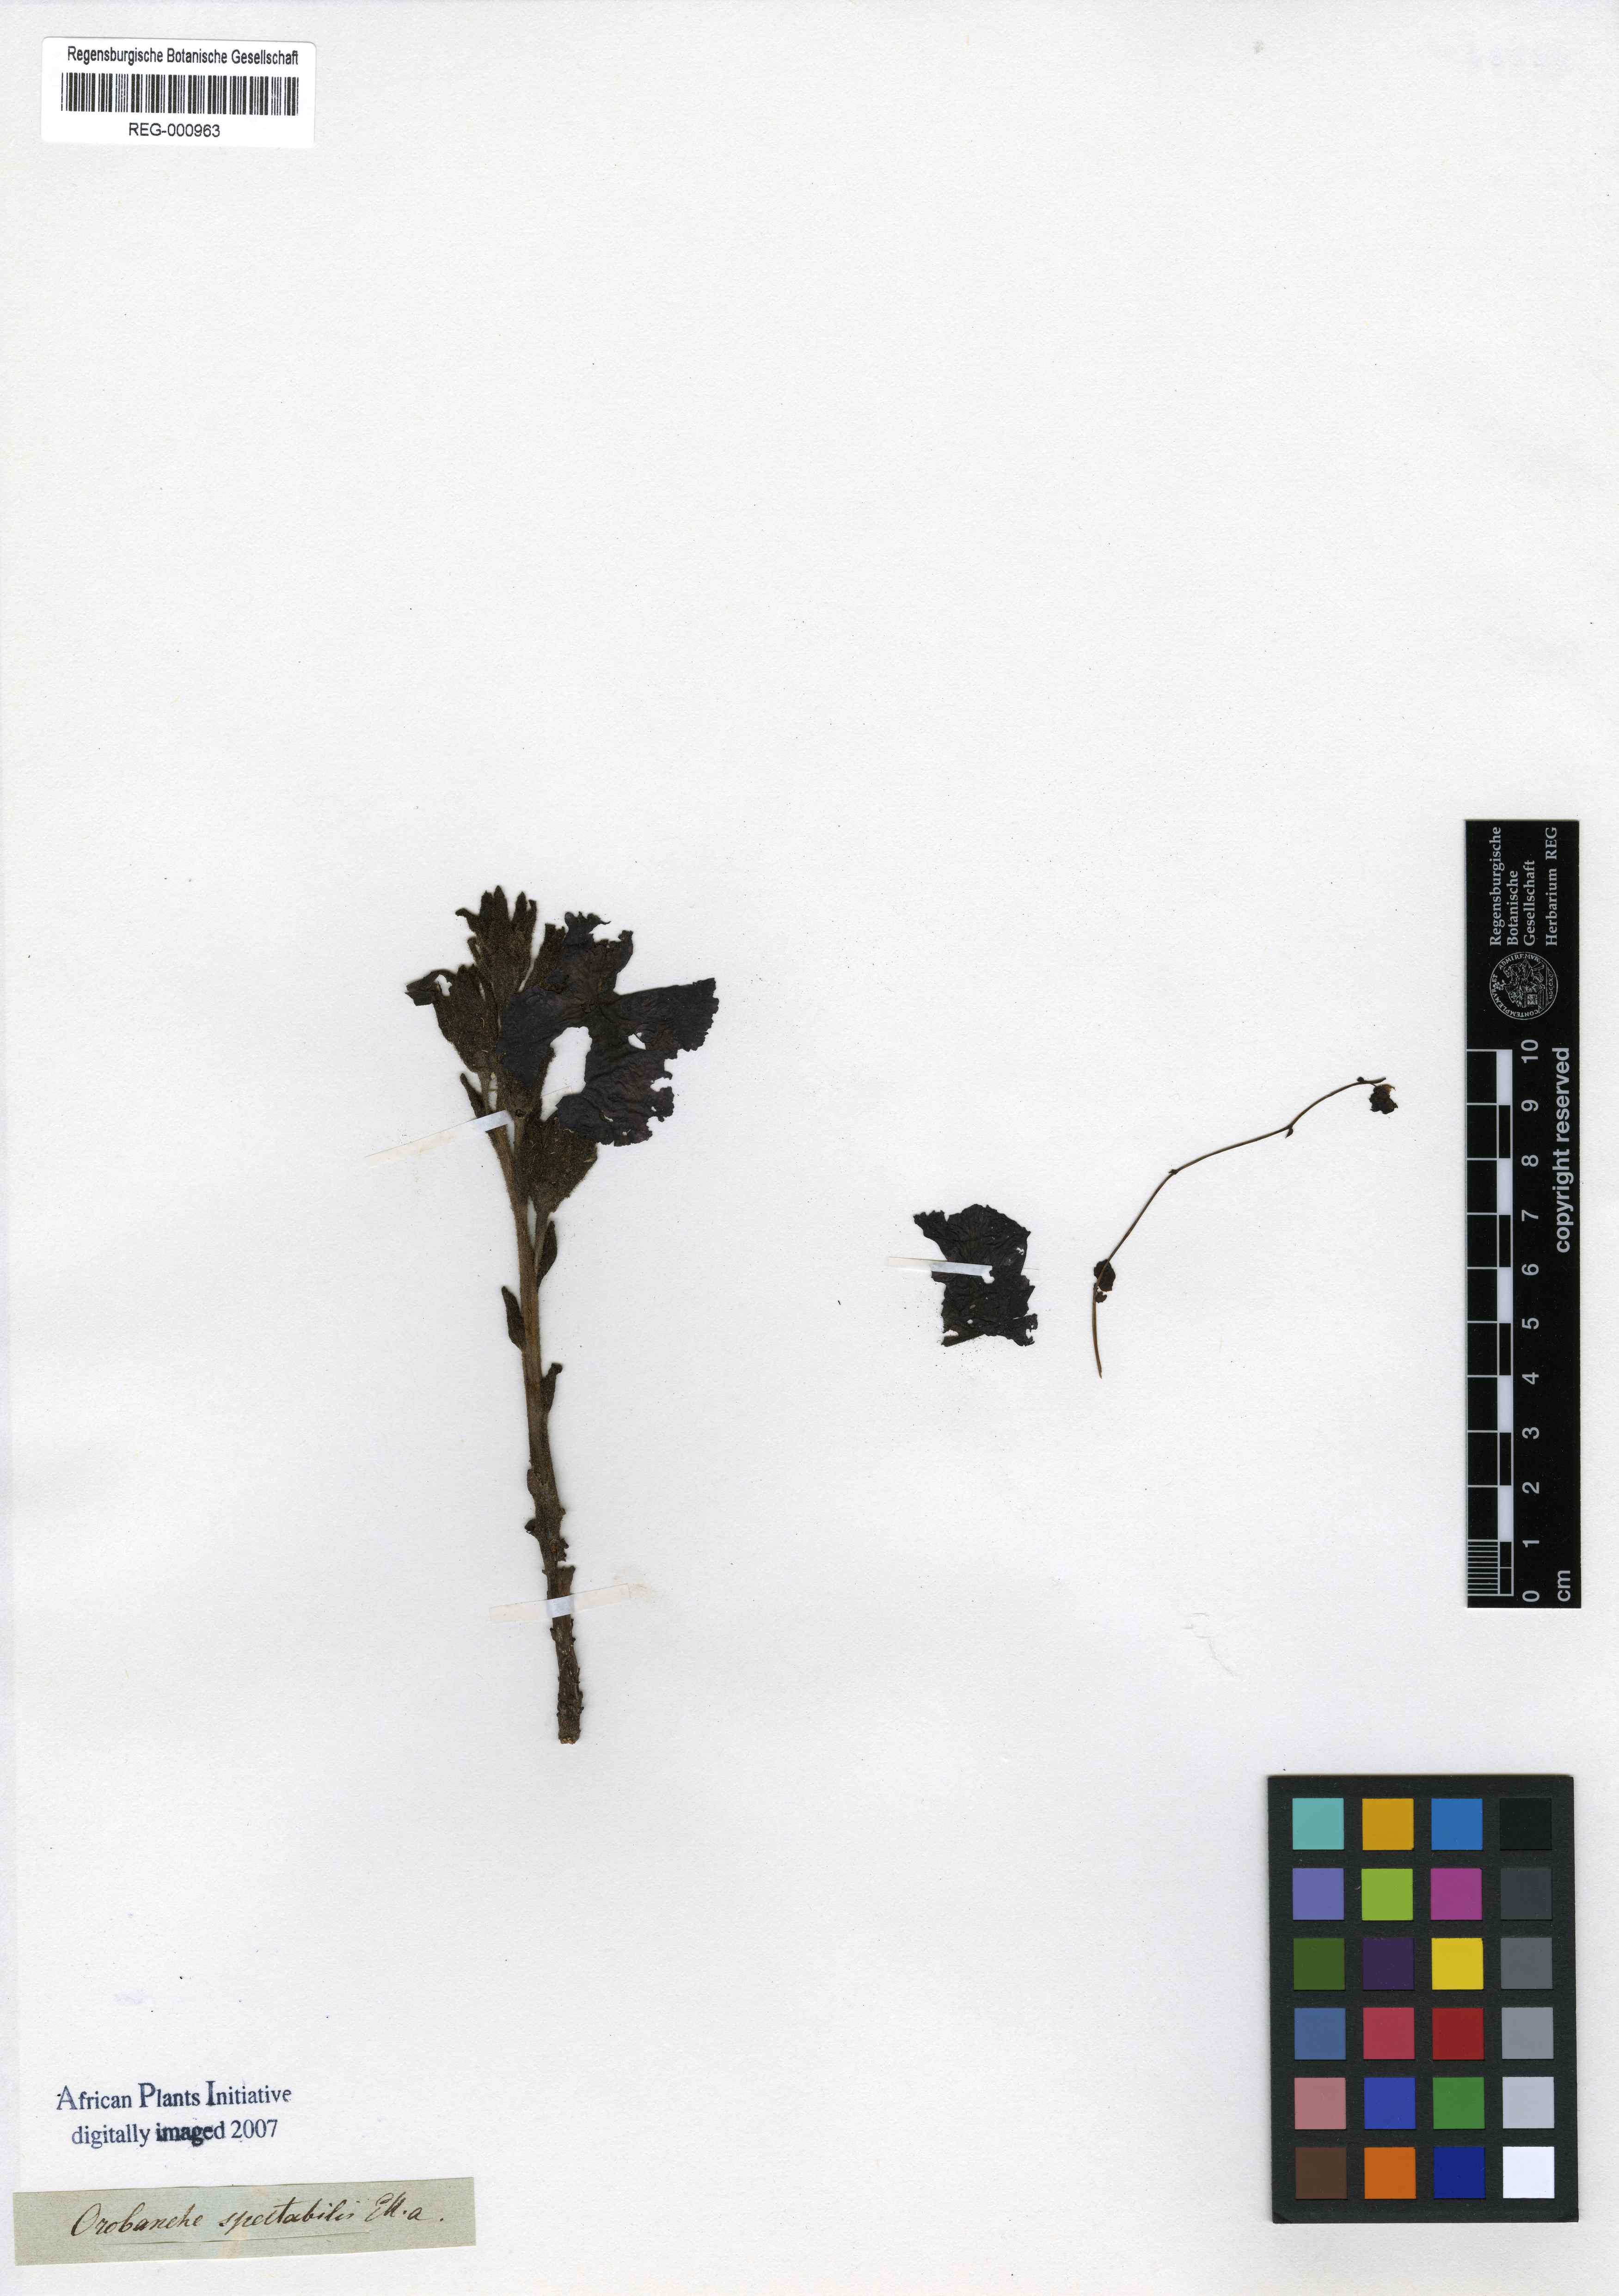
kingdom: Plantae
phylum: Tracheophyta
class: Magnoliopsida
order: Lamiales
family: Orobanchaceae
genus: Harveya
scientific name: Harveya capensis
